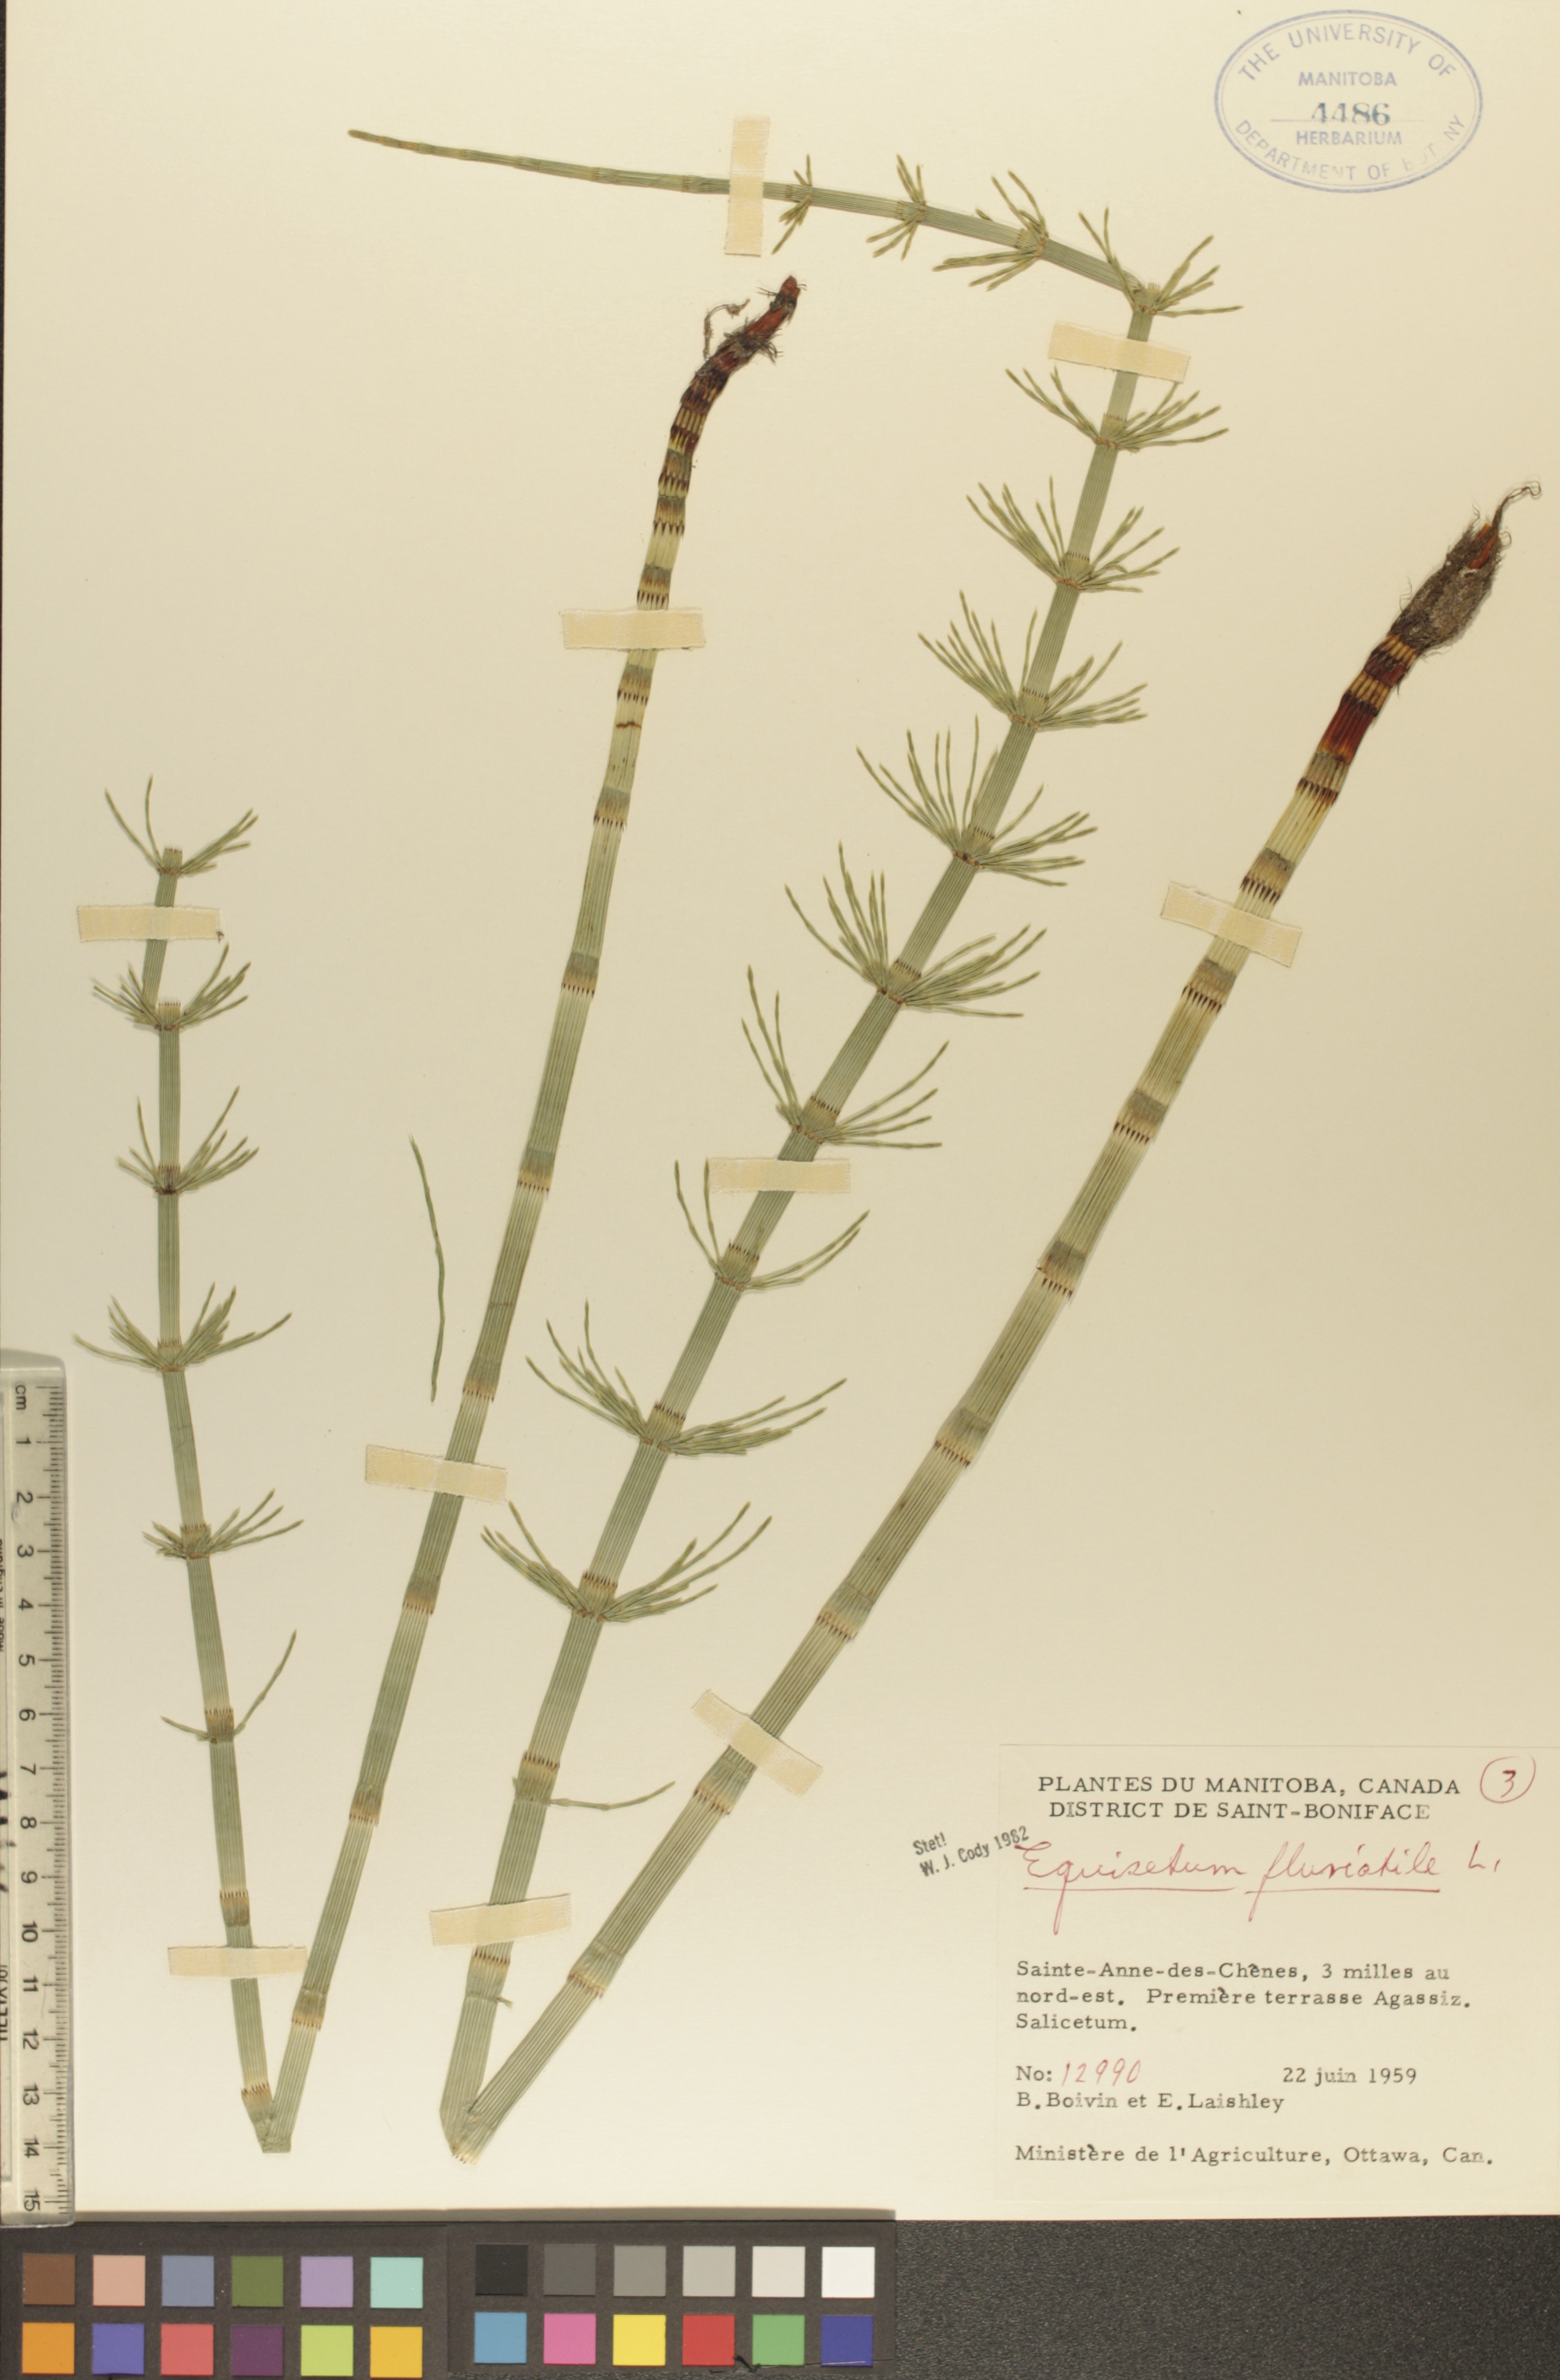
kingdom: Plantae
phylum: Tracheophyta
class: Polypodiopsida
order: Equisetales
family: Equisetaceae
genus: Equisetum
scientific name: Equisetum fluviatile
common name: Water horsetail
